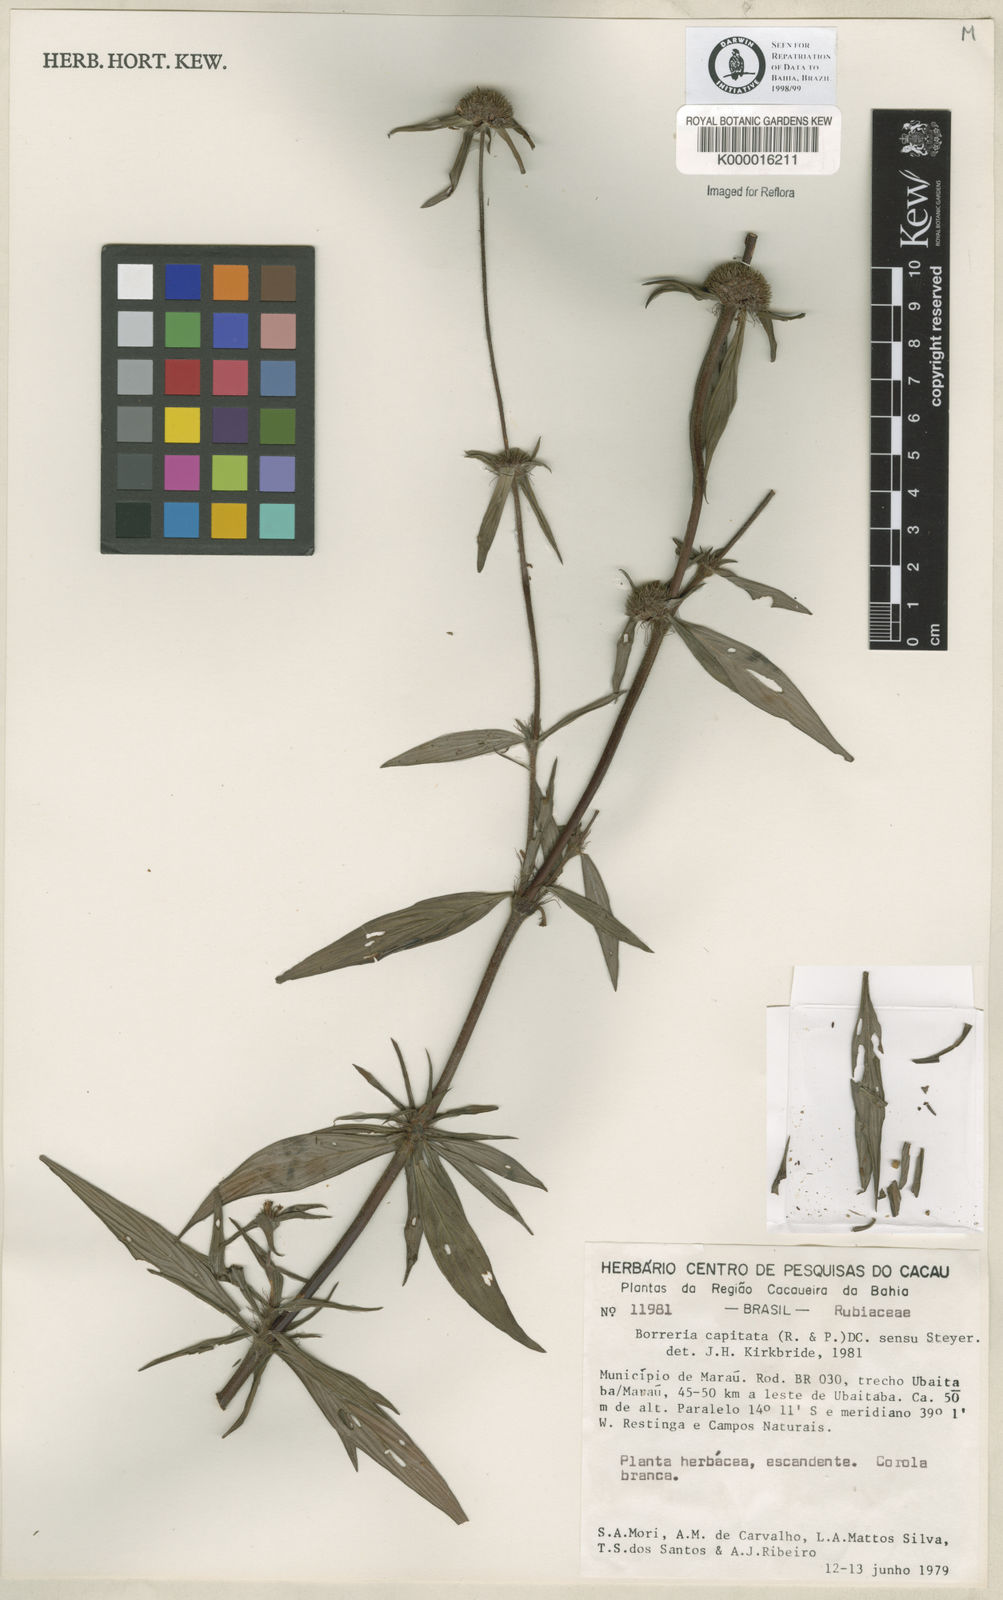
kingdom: Plantae
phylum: Tracheophyta
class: Magnoliopsida
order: Gentianales
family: Rubiaceae
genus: Spermacoce
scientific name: Spermacoce capitata
